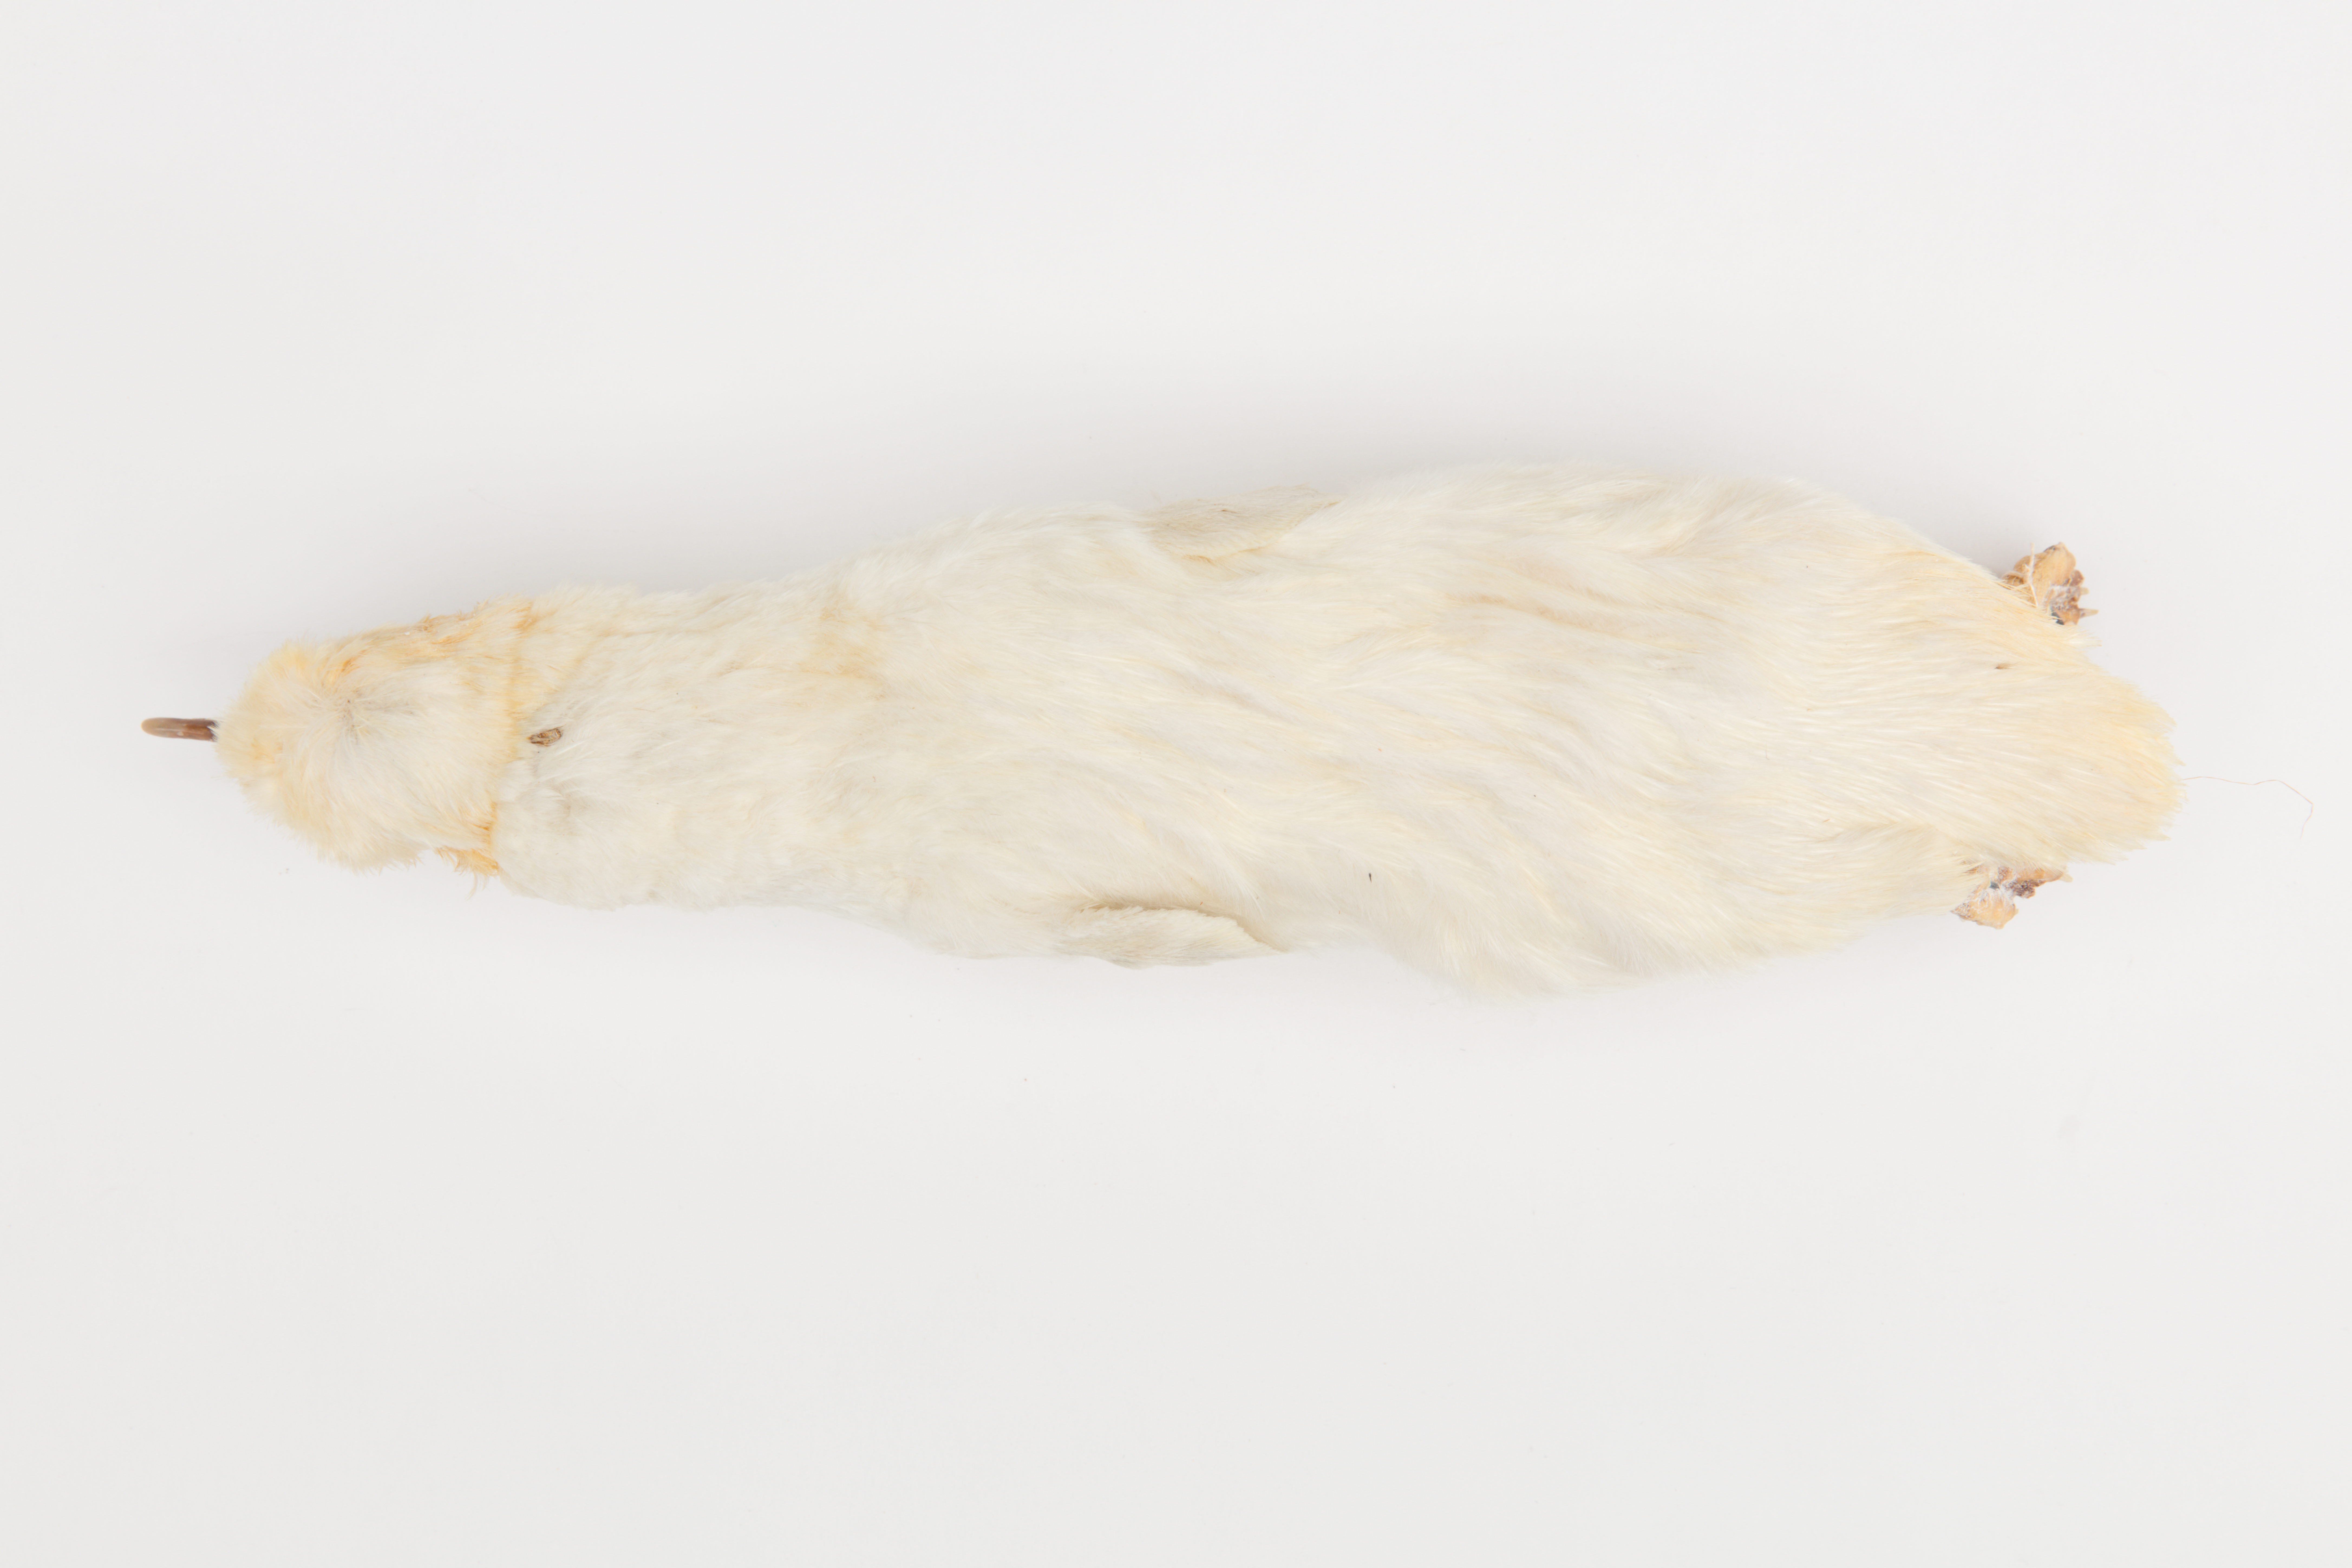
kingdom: Animalia
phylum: Chordata
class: Aves
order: Sphenisciformes
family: Spheniscidae
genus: Eudyptula
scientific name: Eudyptula minor
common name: Little penguin
